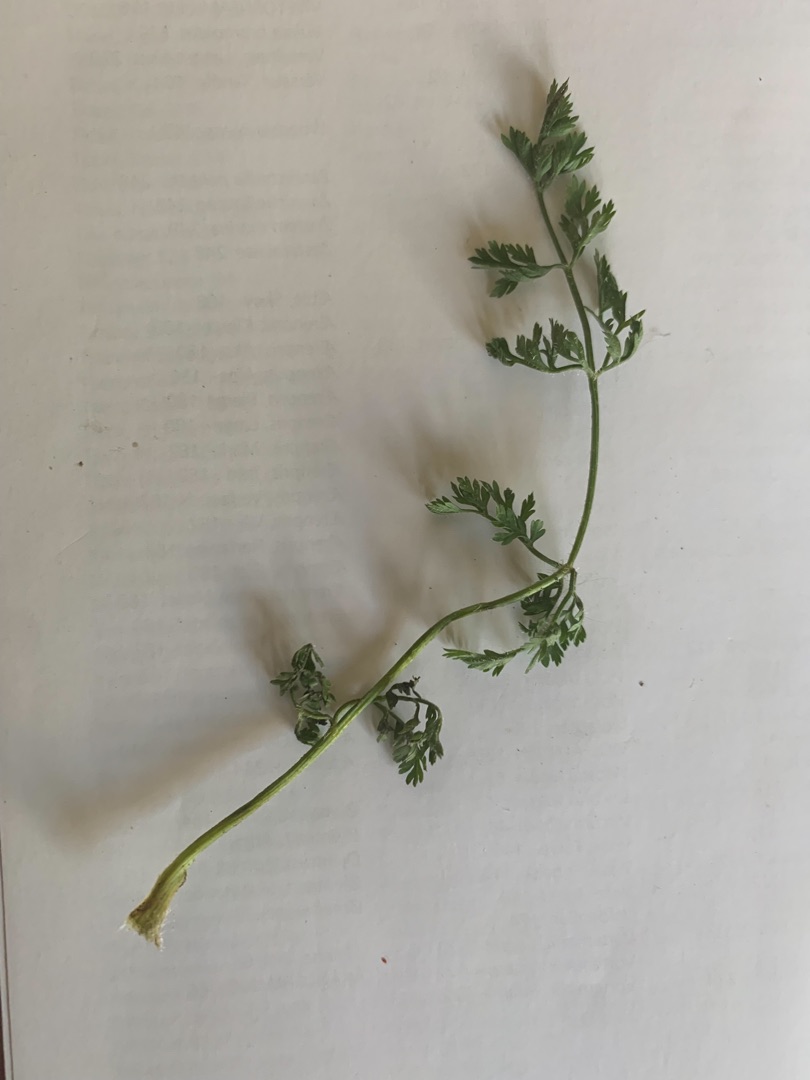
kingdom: Plantae
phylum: Tracheophyta
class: Magnoliopsida
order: Apiales
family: Apiaceae
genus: Daucus
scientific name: Daucus carota
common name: Vild gulerod
